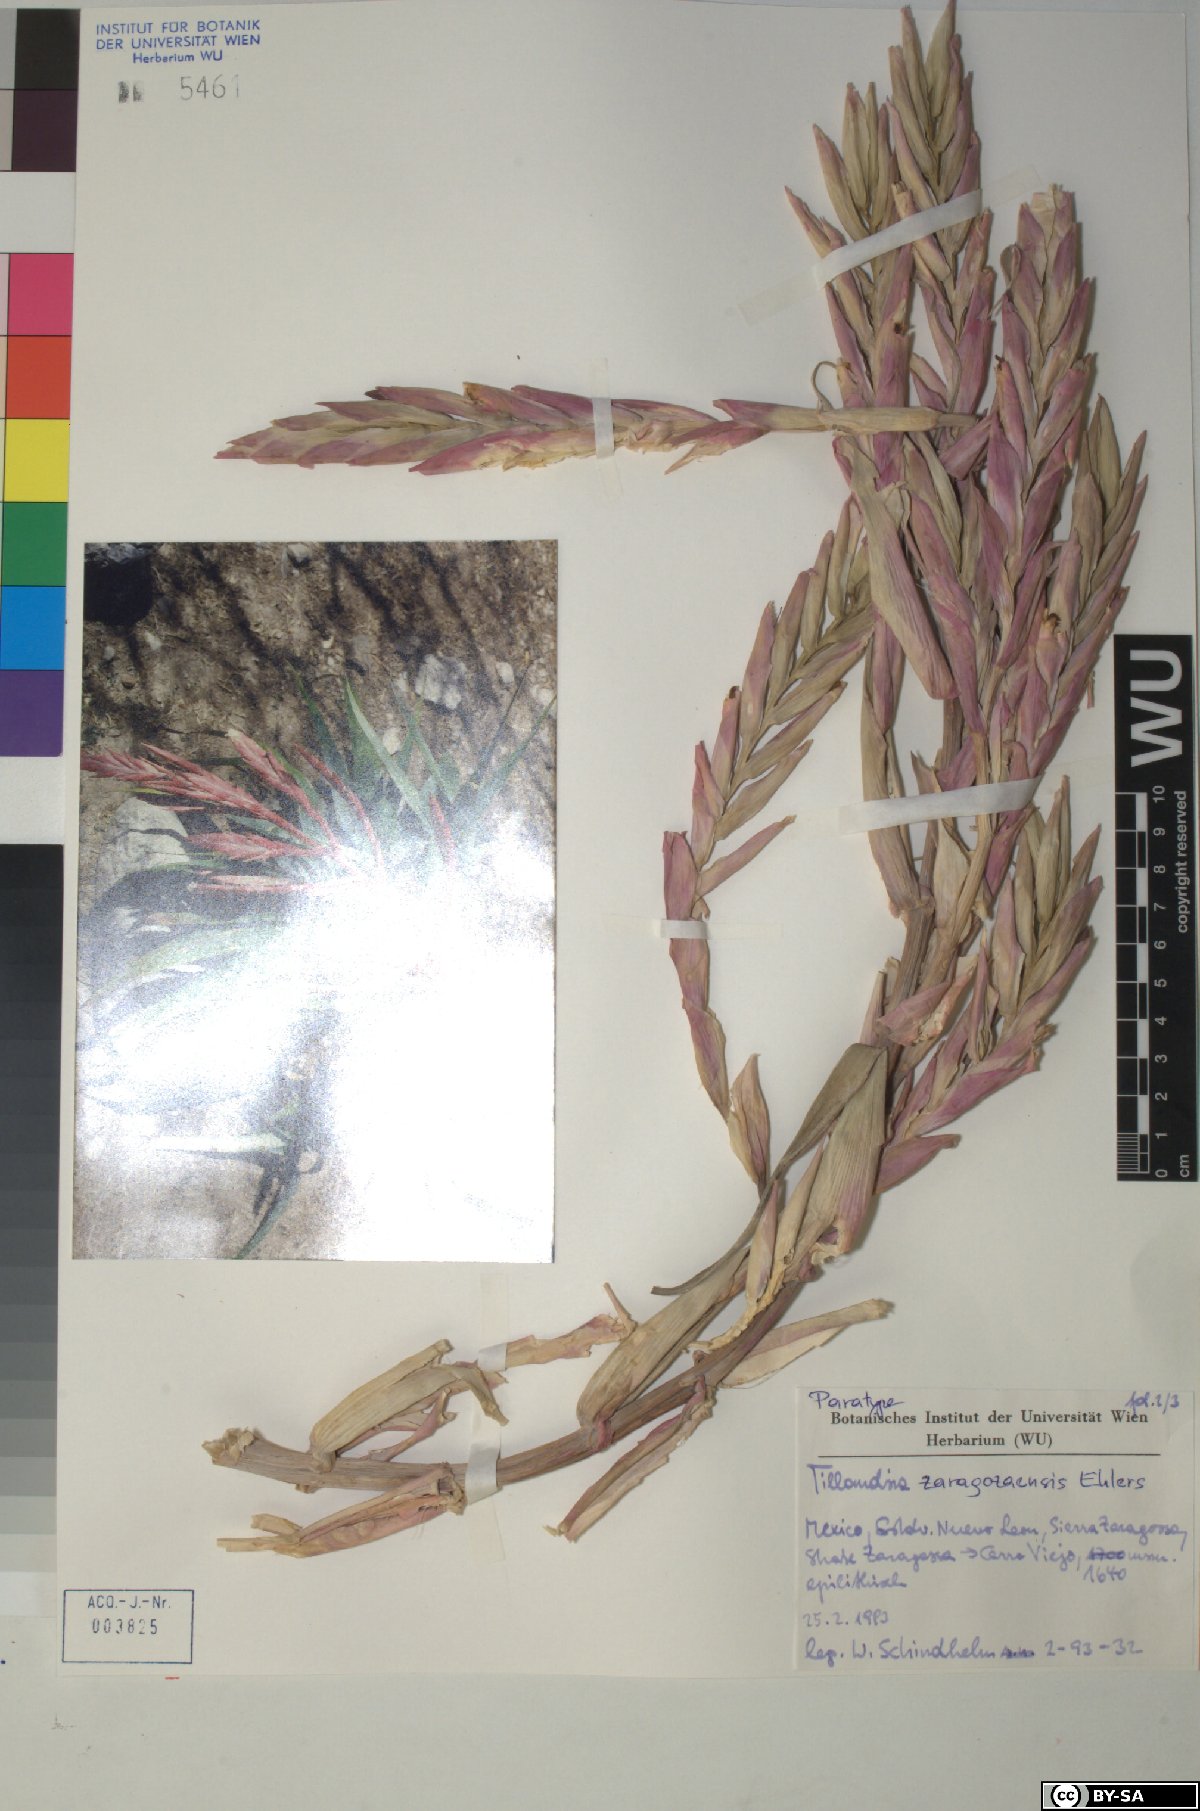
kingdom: Plantae
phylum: Tracheophyta
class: Liliopsida
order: Poales
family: Bromeliaceae
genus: Tillandsia
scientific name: Tillandsia zaragozaensis
